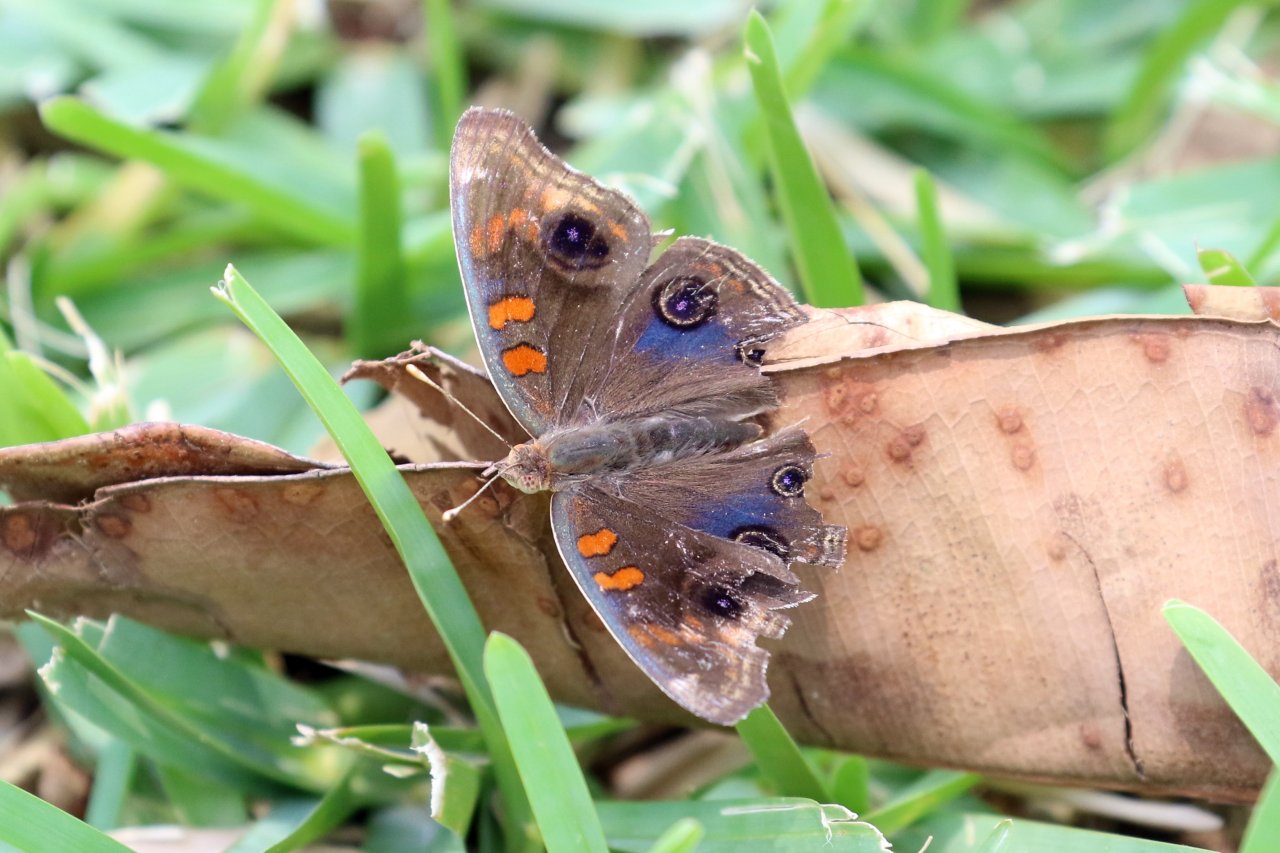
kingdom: Animalia
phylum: Arthropoda
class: Insecta
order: Lepidoptera
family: Nymphalidae
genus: Junonia
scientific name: Junonia lavinia
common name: Tropical Buckeye
